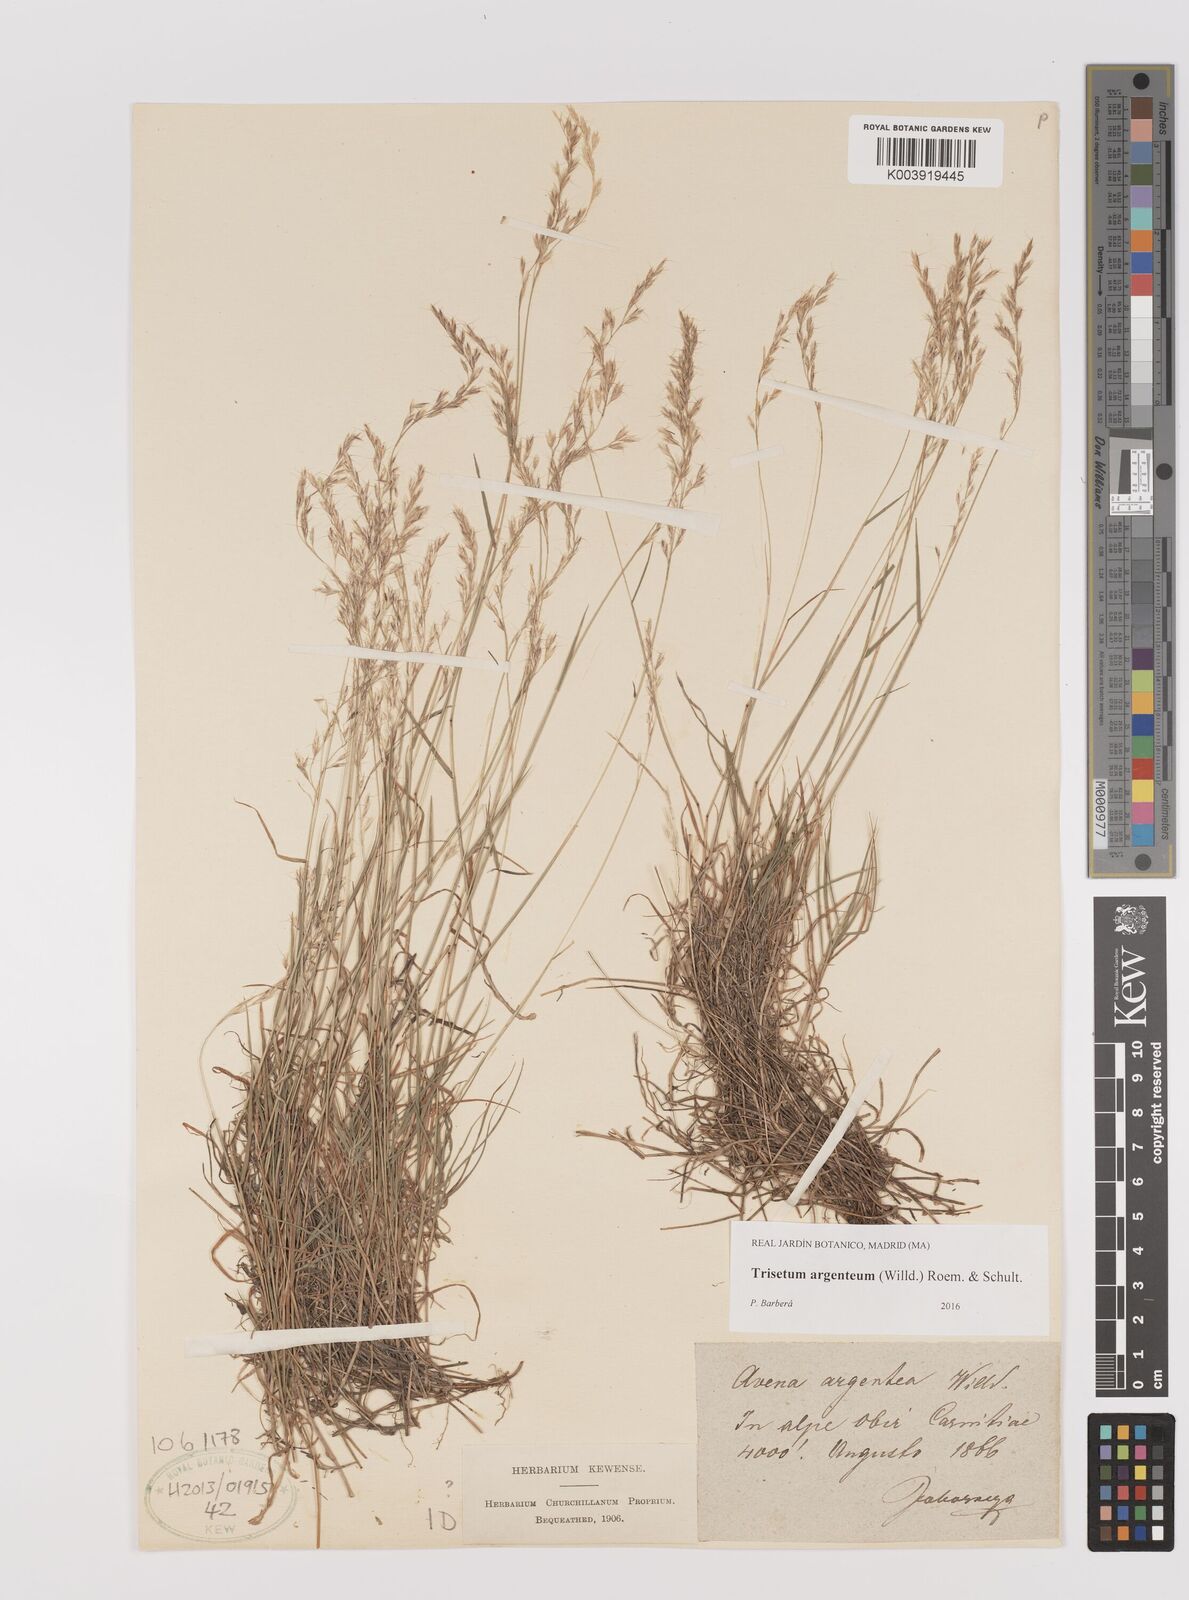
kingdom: Plantae
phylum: Tracheophyta
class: Liliopsida
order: Poales
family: Poaceae
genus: Trisetum
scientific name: Trisetum argenteum
